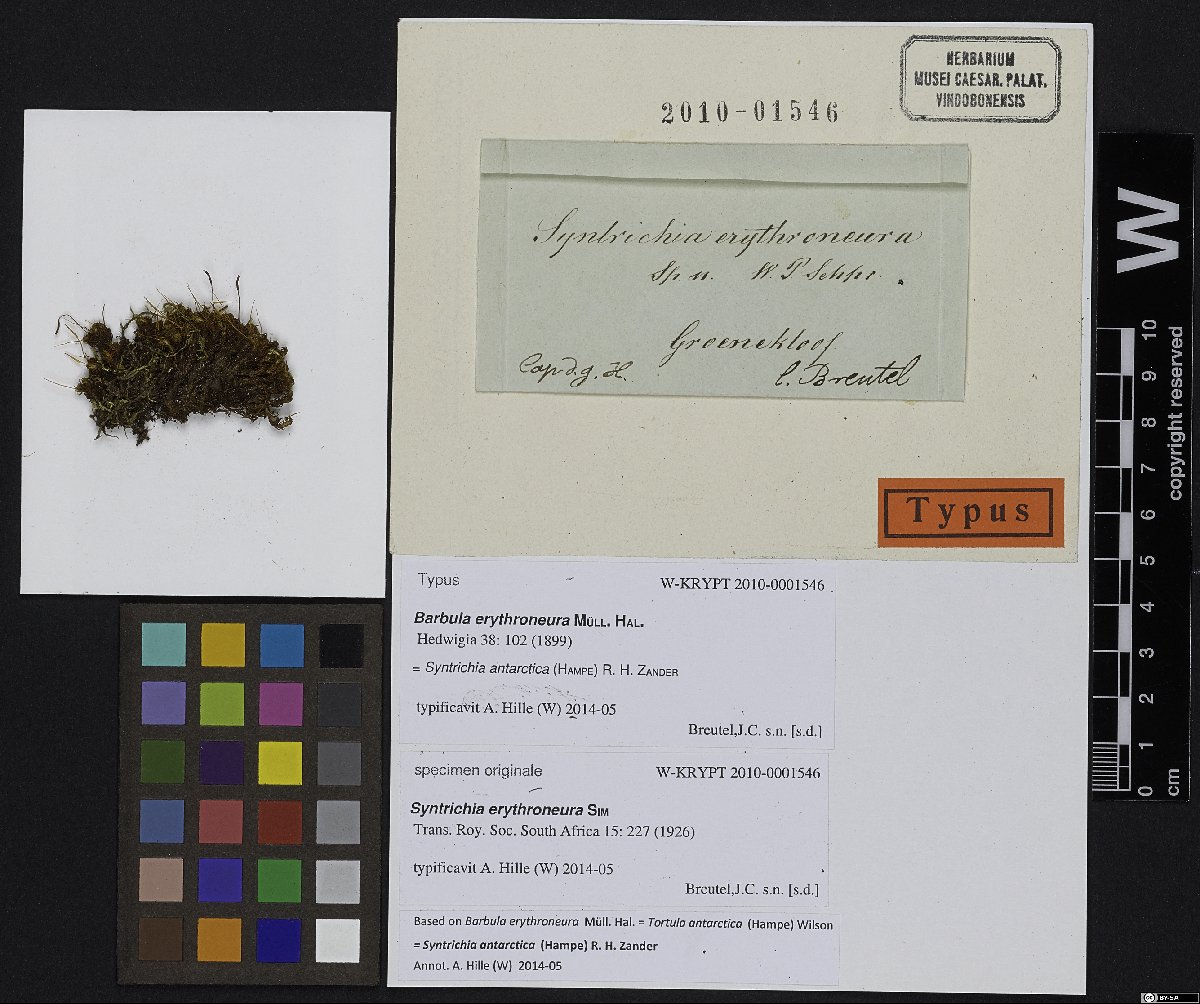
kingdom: Plantae
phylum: Bryophyta
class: Bryopsida
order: Pottiales
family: Pottiaceae
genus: Syntrichia
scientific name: Syntrichia antarctica
